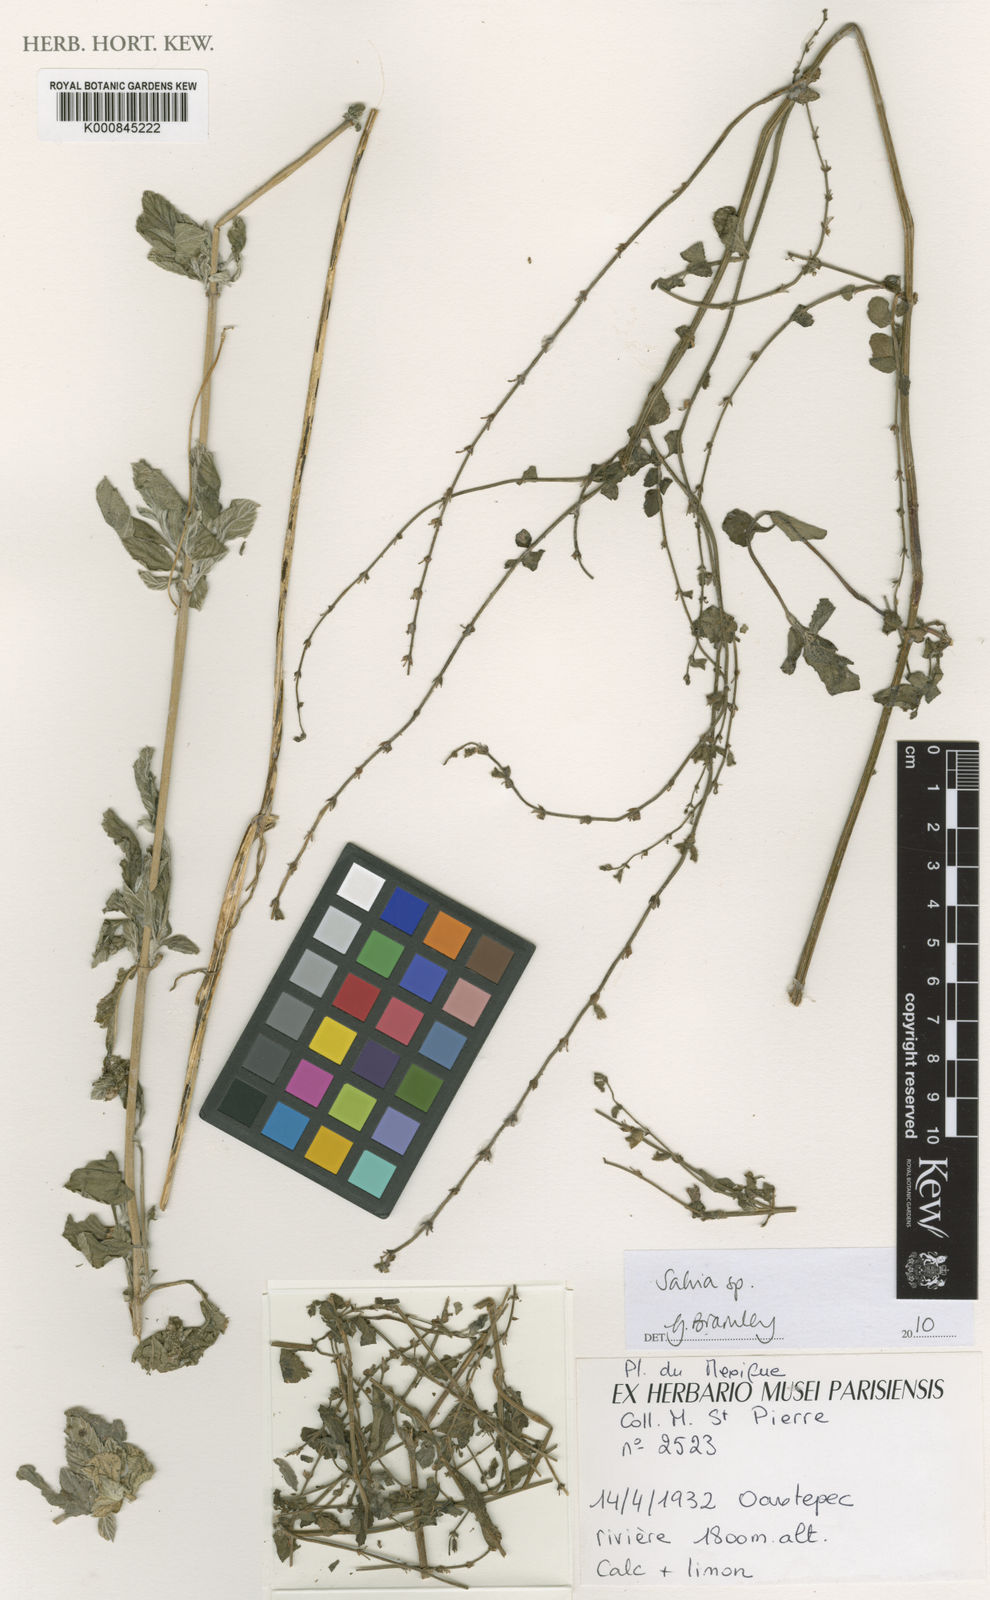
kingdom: Plantae
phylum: Tracheophyta
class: Magnoliopsida
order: Lamiales
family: Lamiaceae
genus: Salvia
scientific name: Salvia
